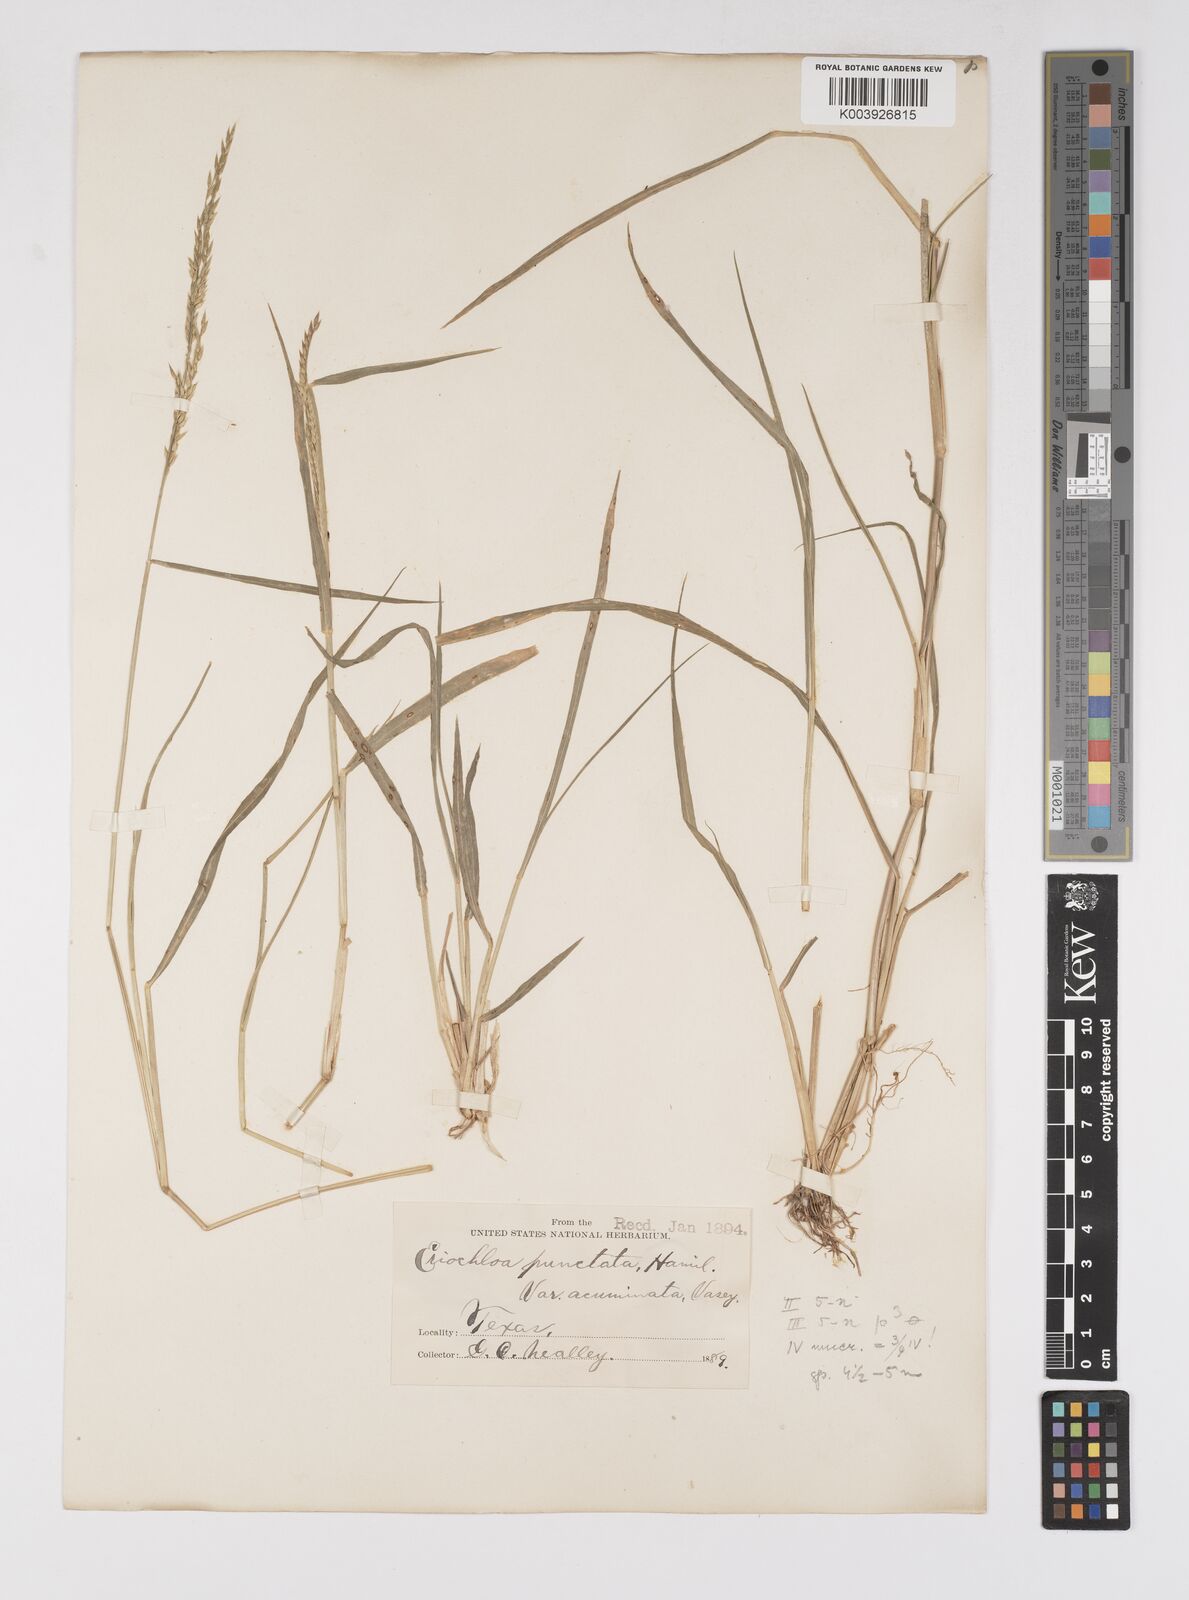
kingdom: Plantae
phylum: Tracheophyta
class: Liliopsida
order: Poales
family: Poaceae
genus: Eriochloa
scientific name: Eriochloa punctata
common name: Louisiana cupgrass
